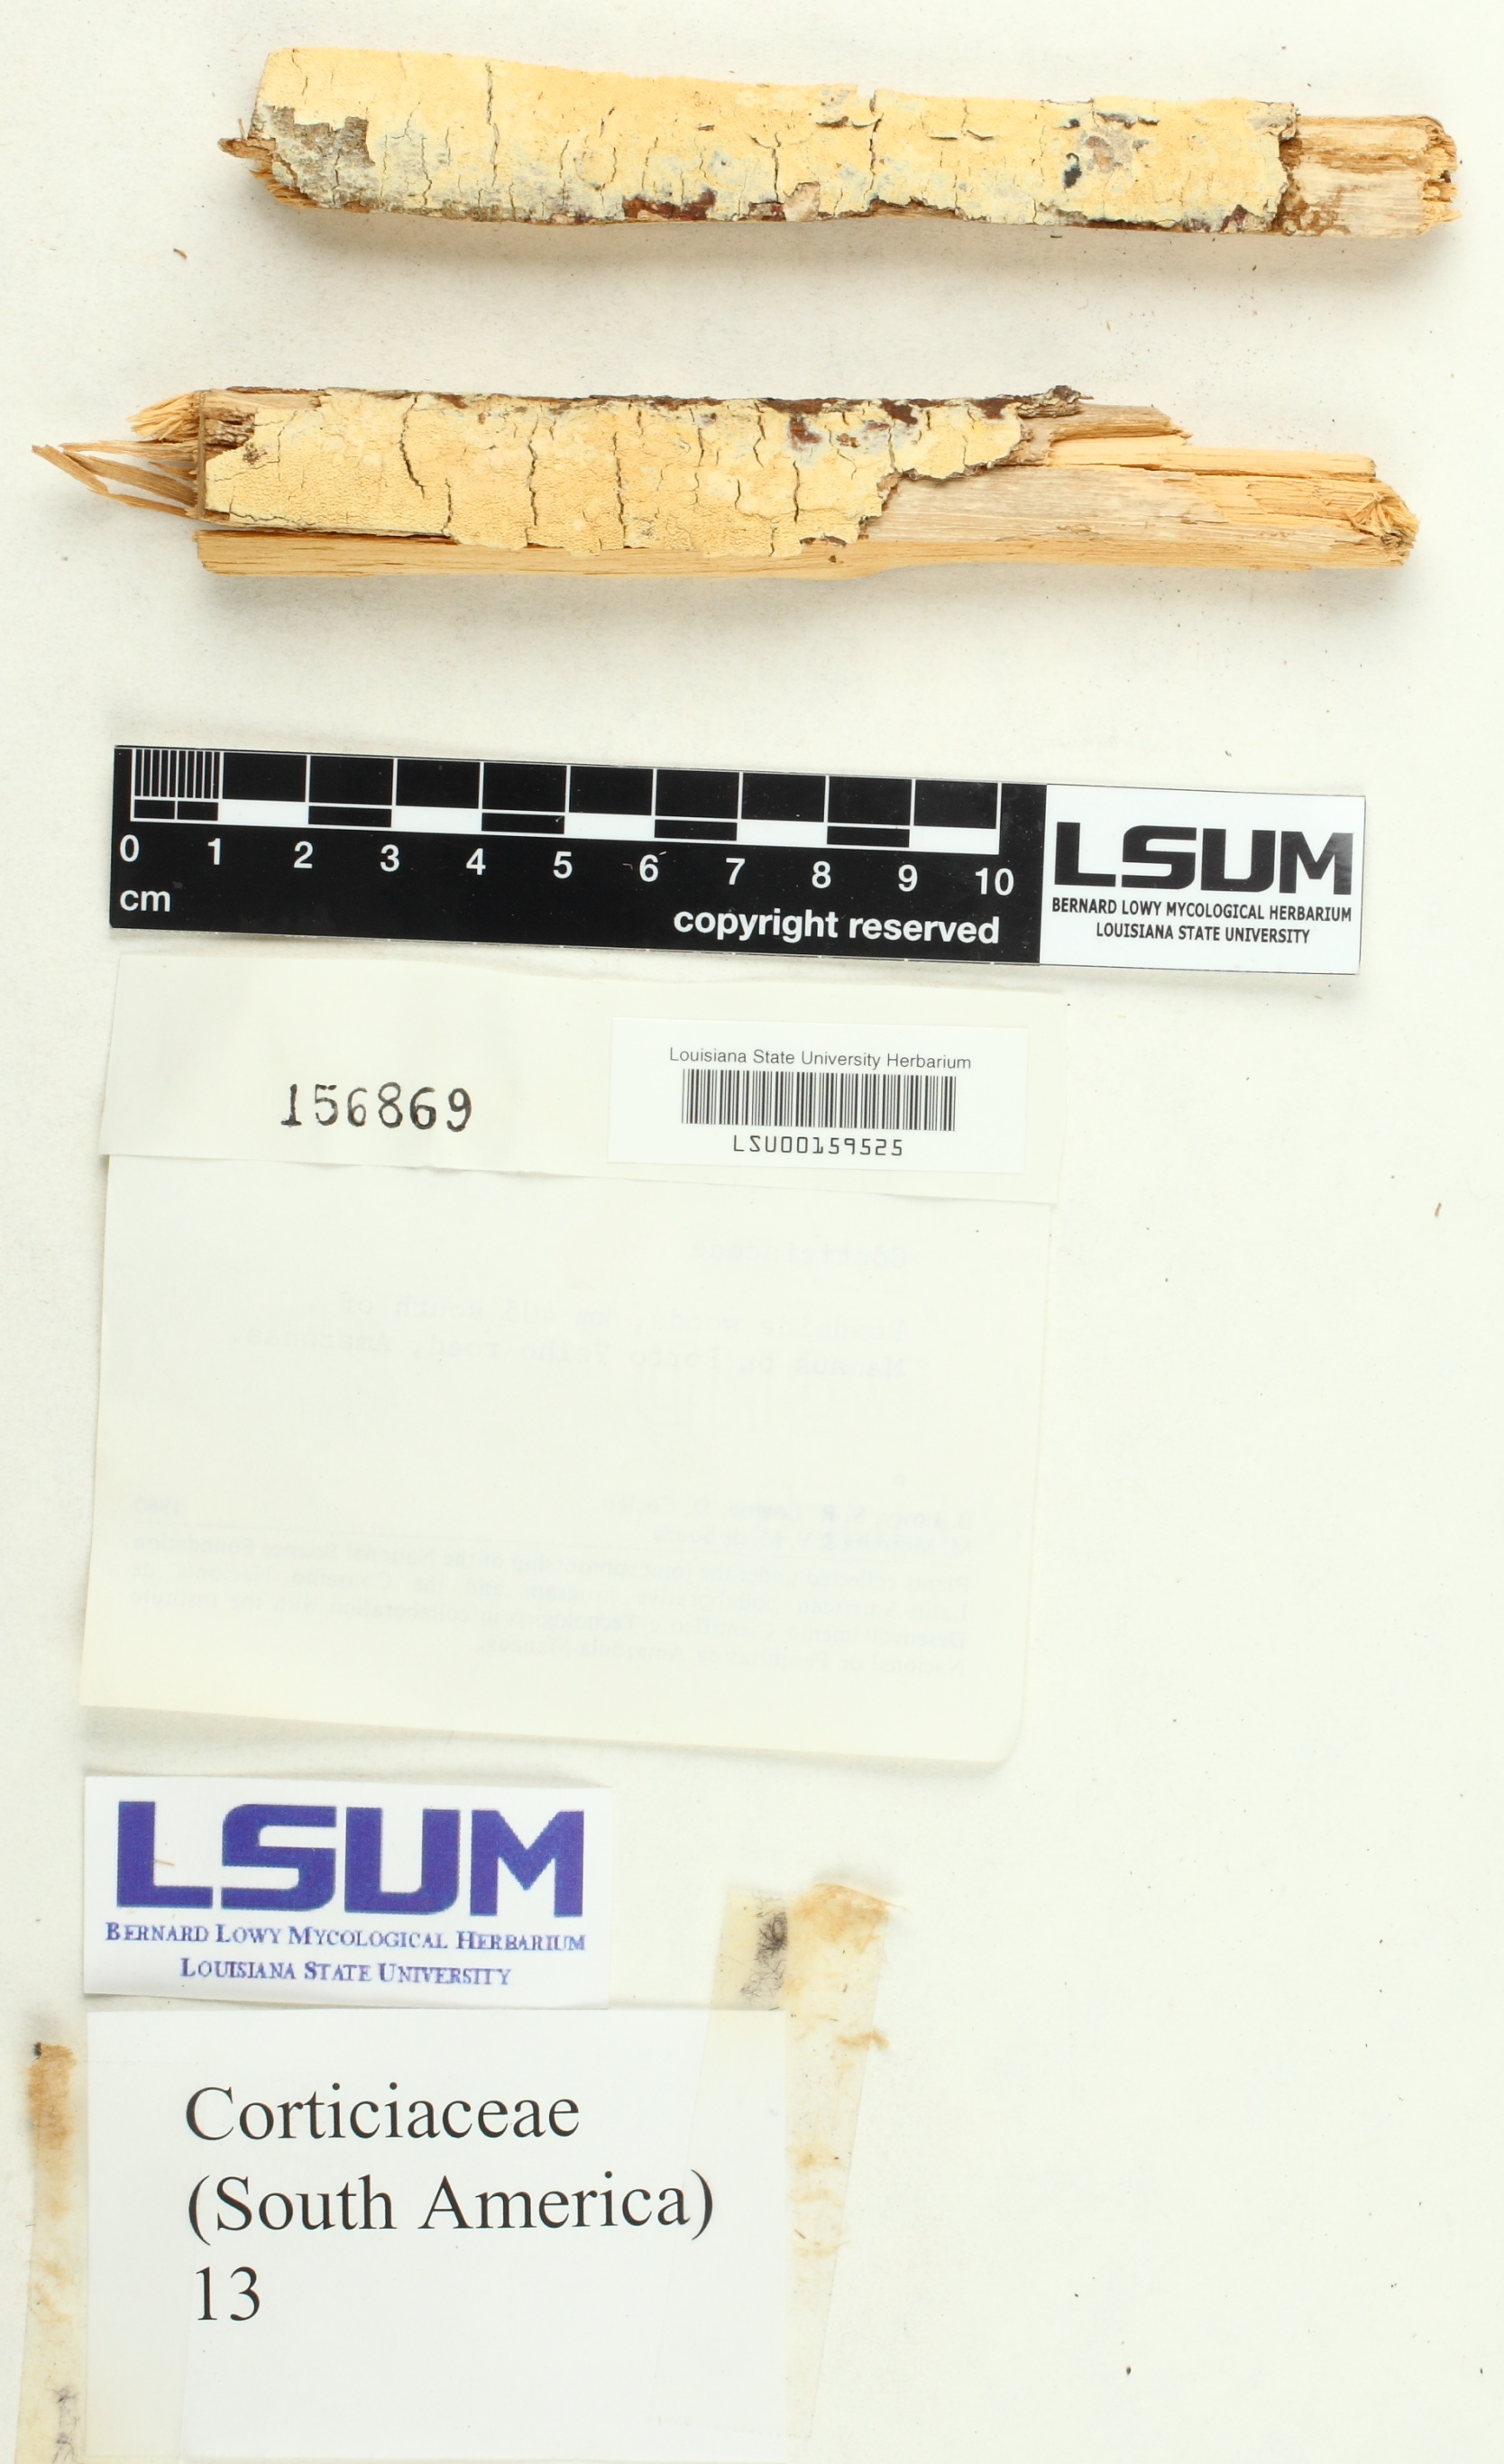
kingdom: Fungi
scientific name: Fungi
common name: Fungi
